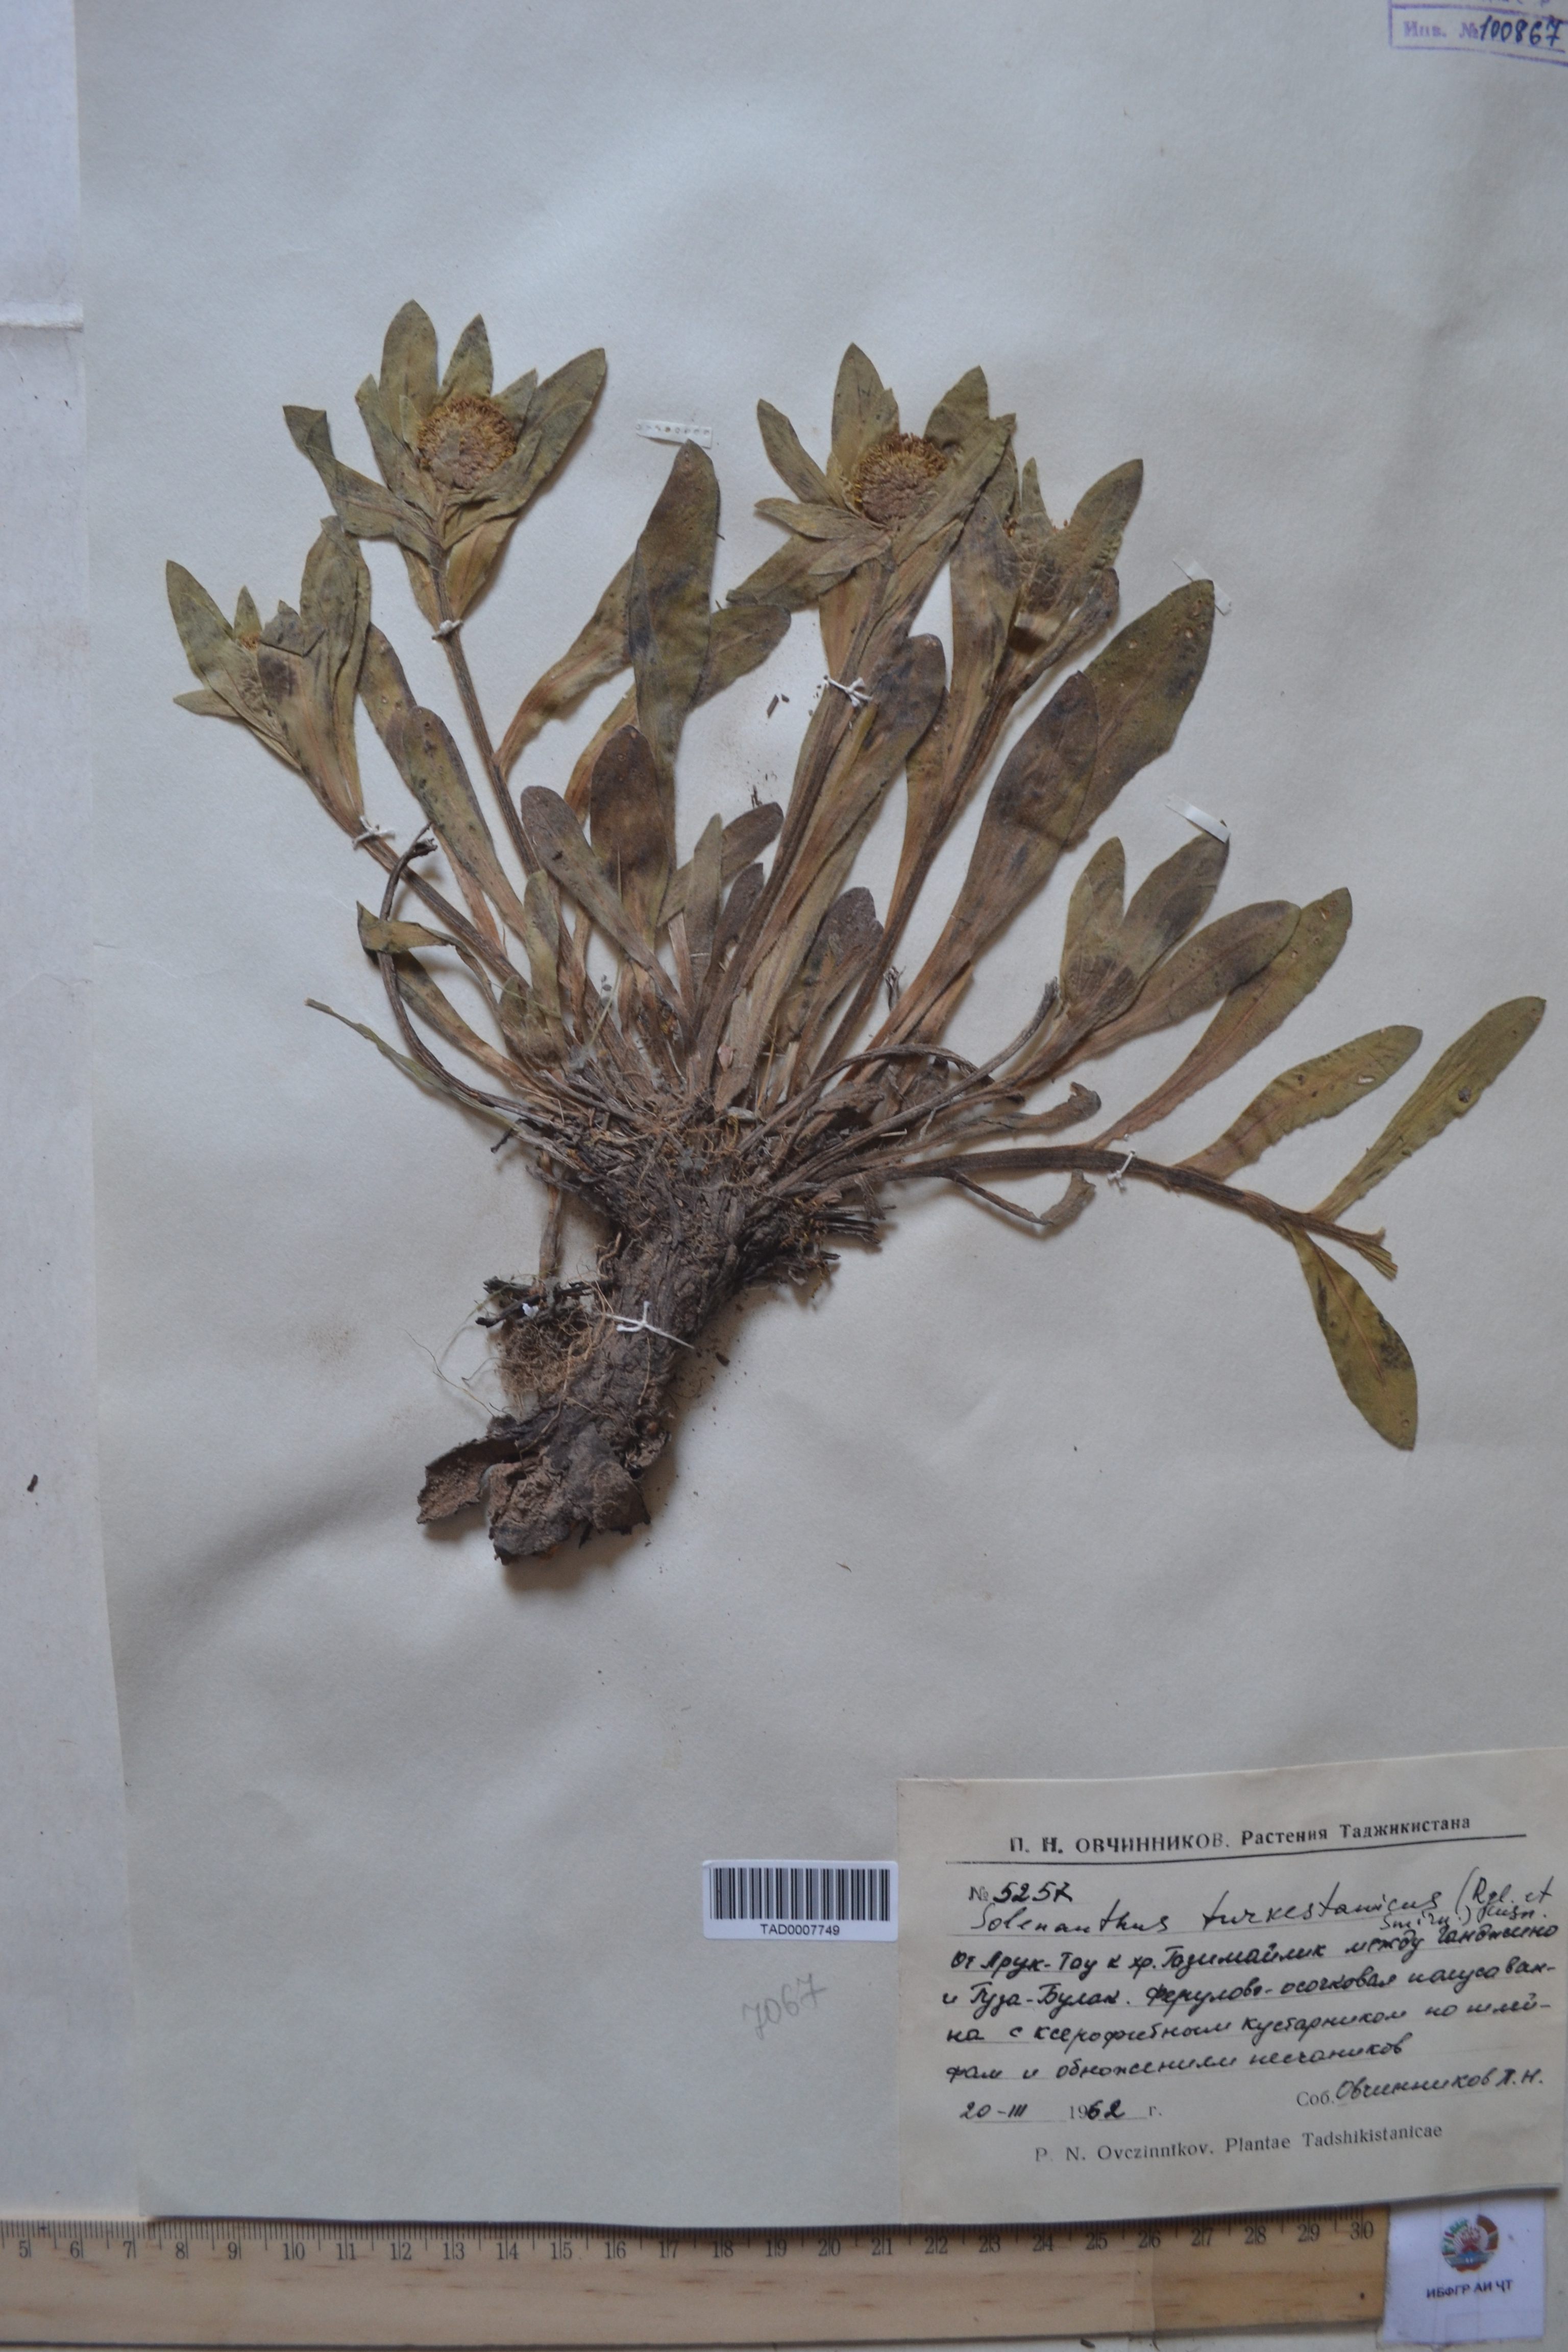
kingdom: Plantae
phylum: Tracheophyta
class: Magnoliopsida
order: Boraginales
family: Boraginaceae
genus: Solenanthus
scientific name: Solenanthus turkestanicus
